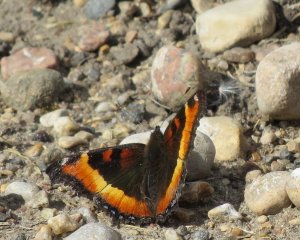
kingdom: Animalia
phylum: Arthropoda
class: Insecta
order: Lepidoptera
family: Nymphalidae
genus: Aglais
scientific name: Aglais milberti
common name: Milbert's Tortoiseshell
